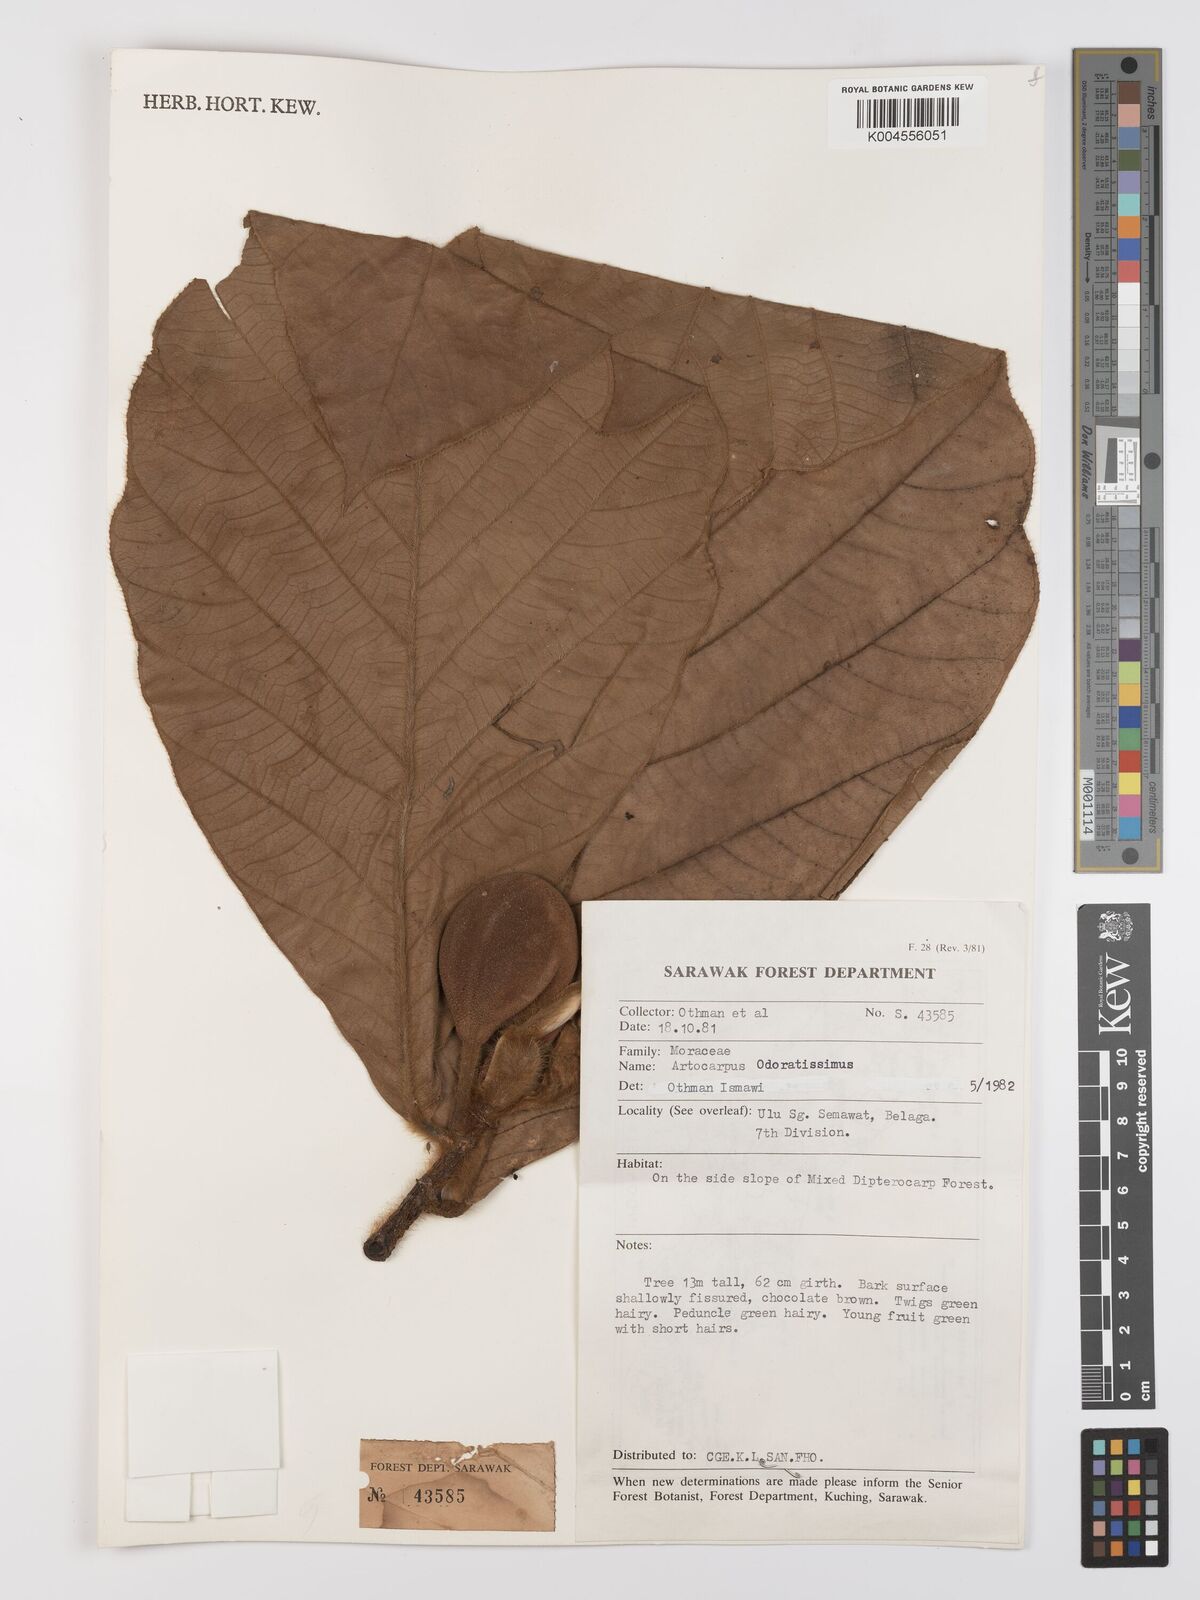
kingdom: Plantae
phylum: Tracheophyta
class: Magnoliopsida
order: Rosales
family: Moraceae
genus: Artocarpus
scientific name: Artocarpus odoratissimus
